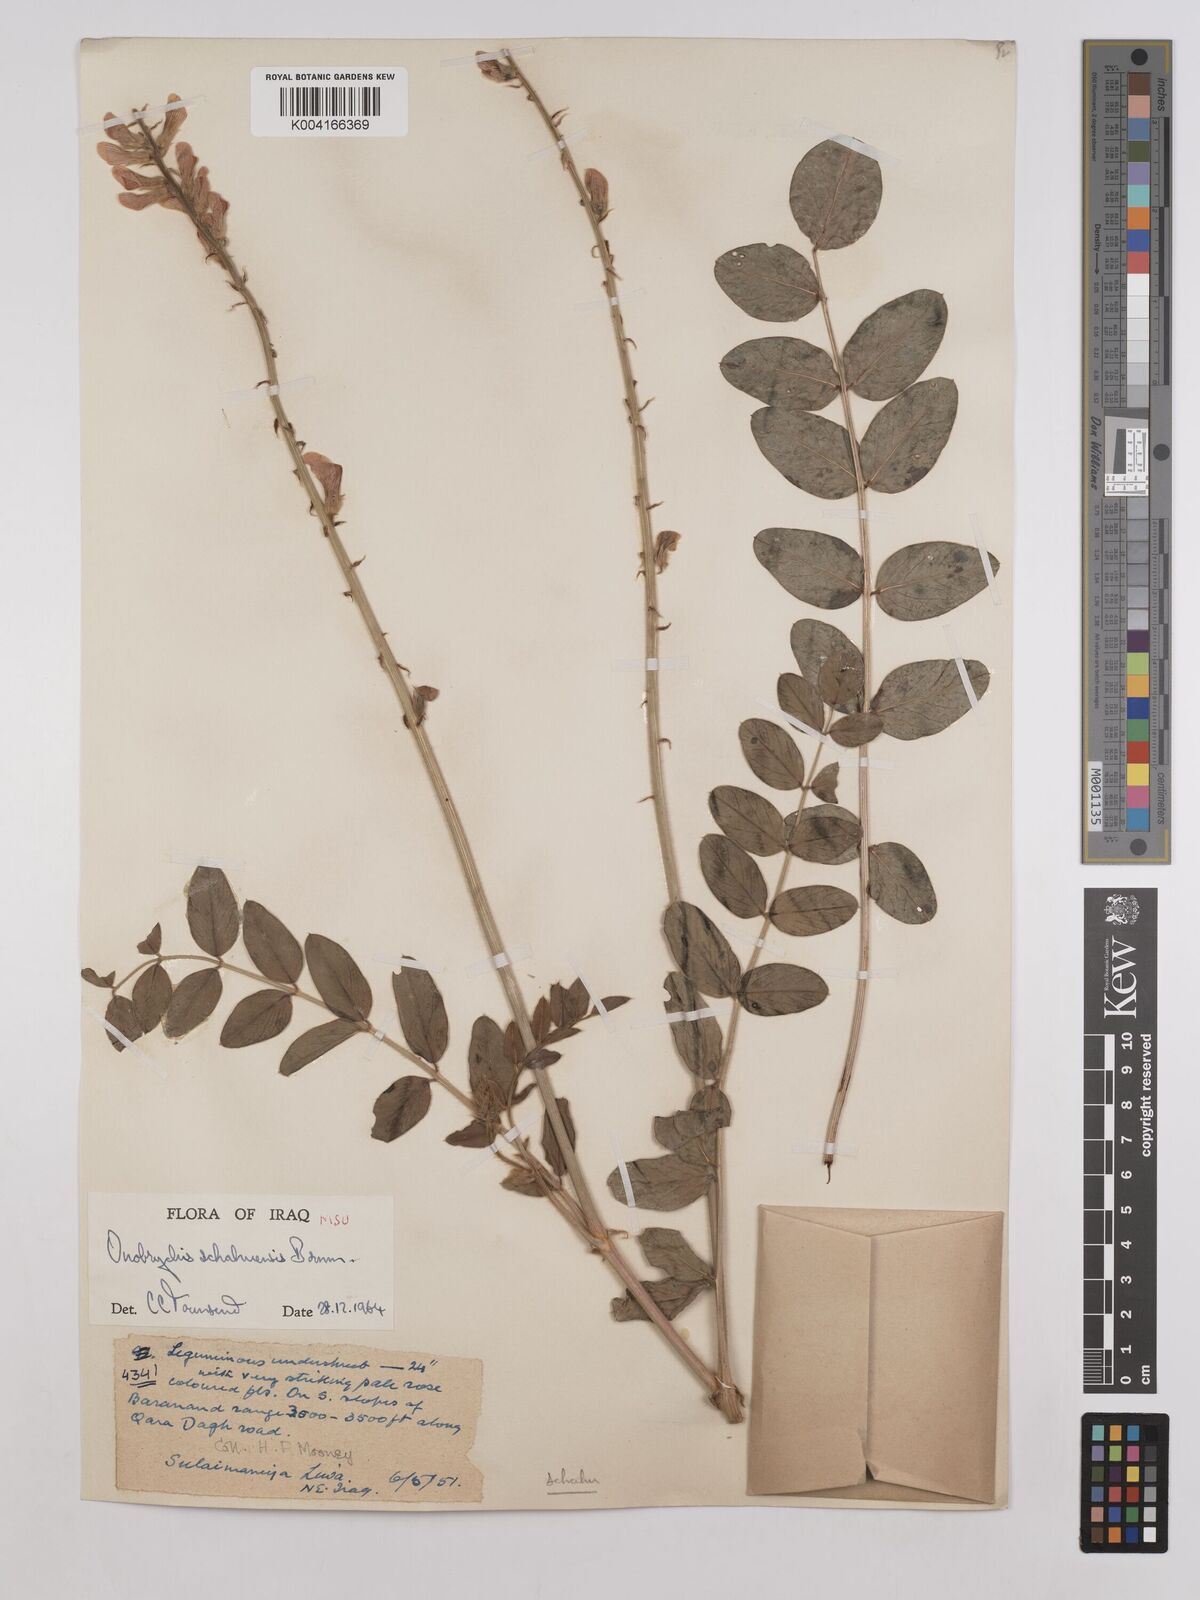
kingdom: Plantae
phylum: Tracheophyta
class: Magnoliopsida
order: Fabales
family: Fabaceae
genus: Onobrychis
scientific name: Onobrychis schahuensis
